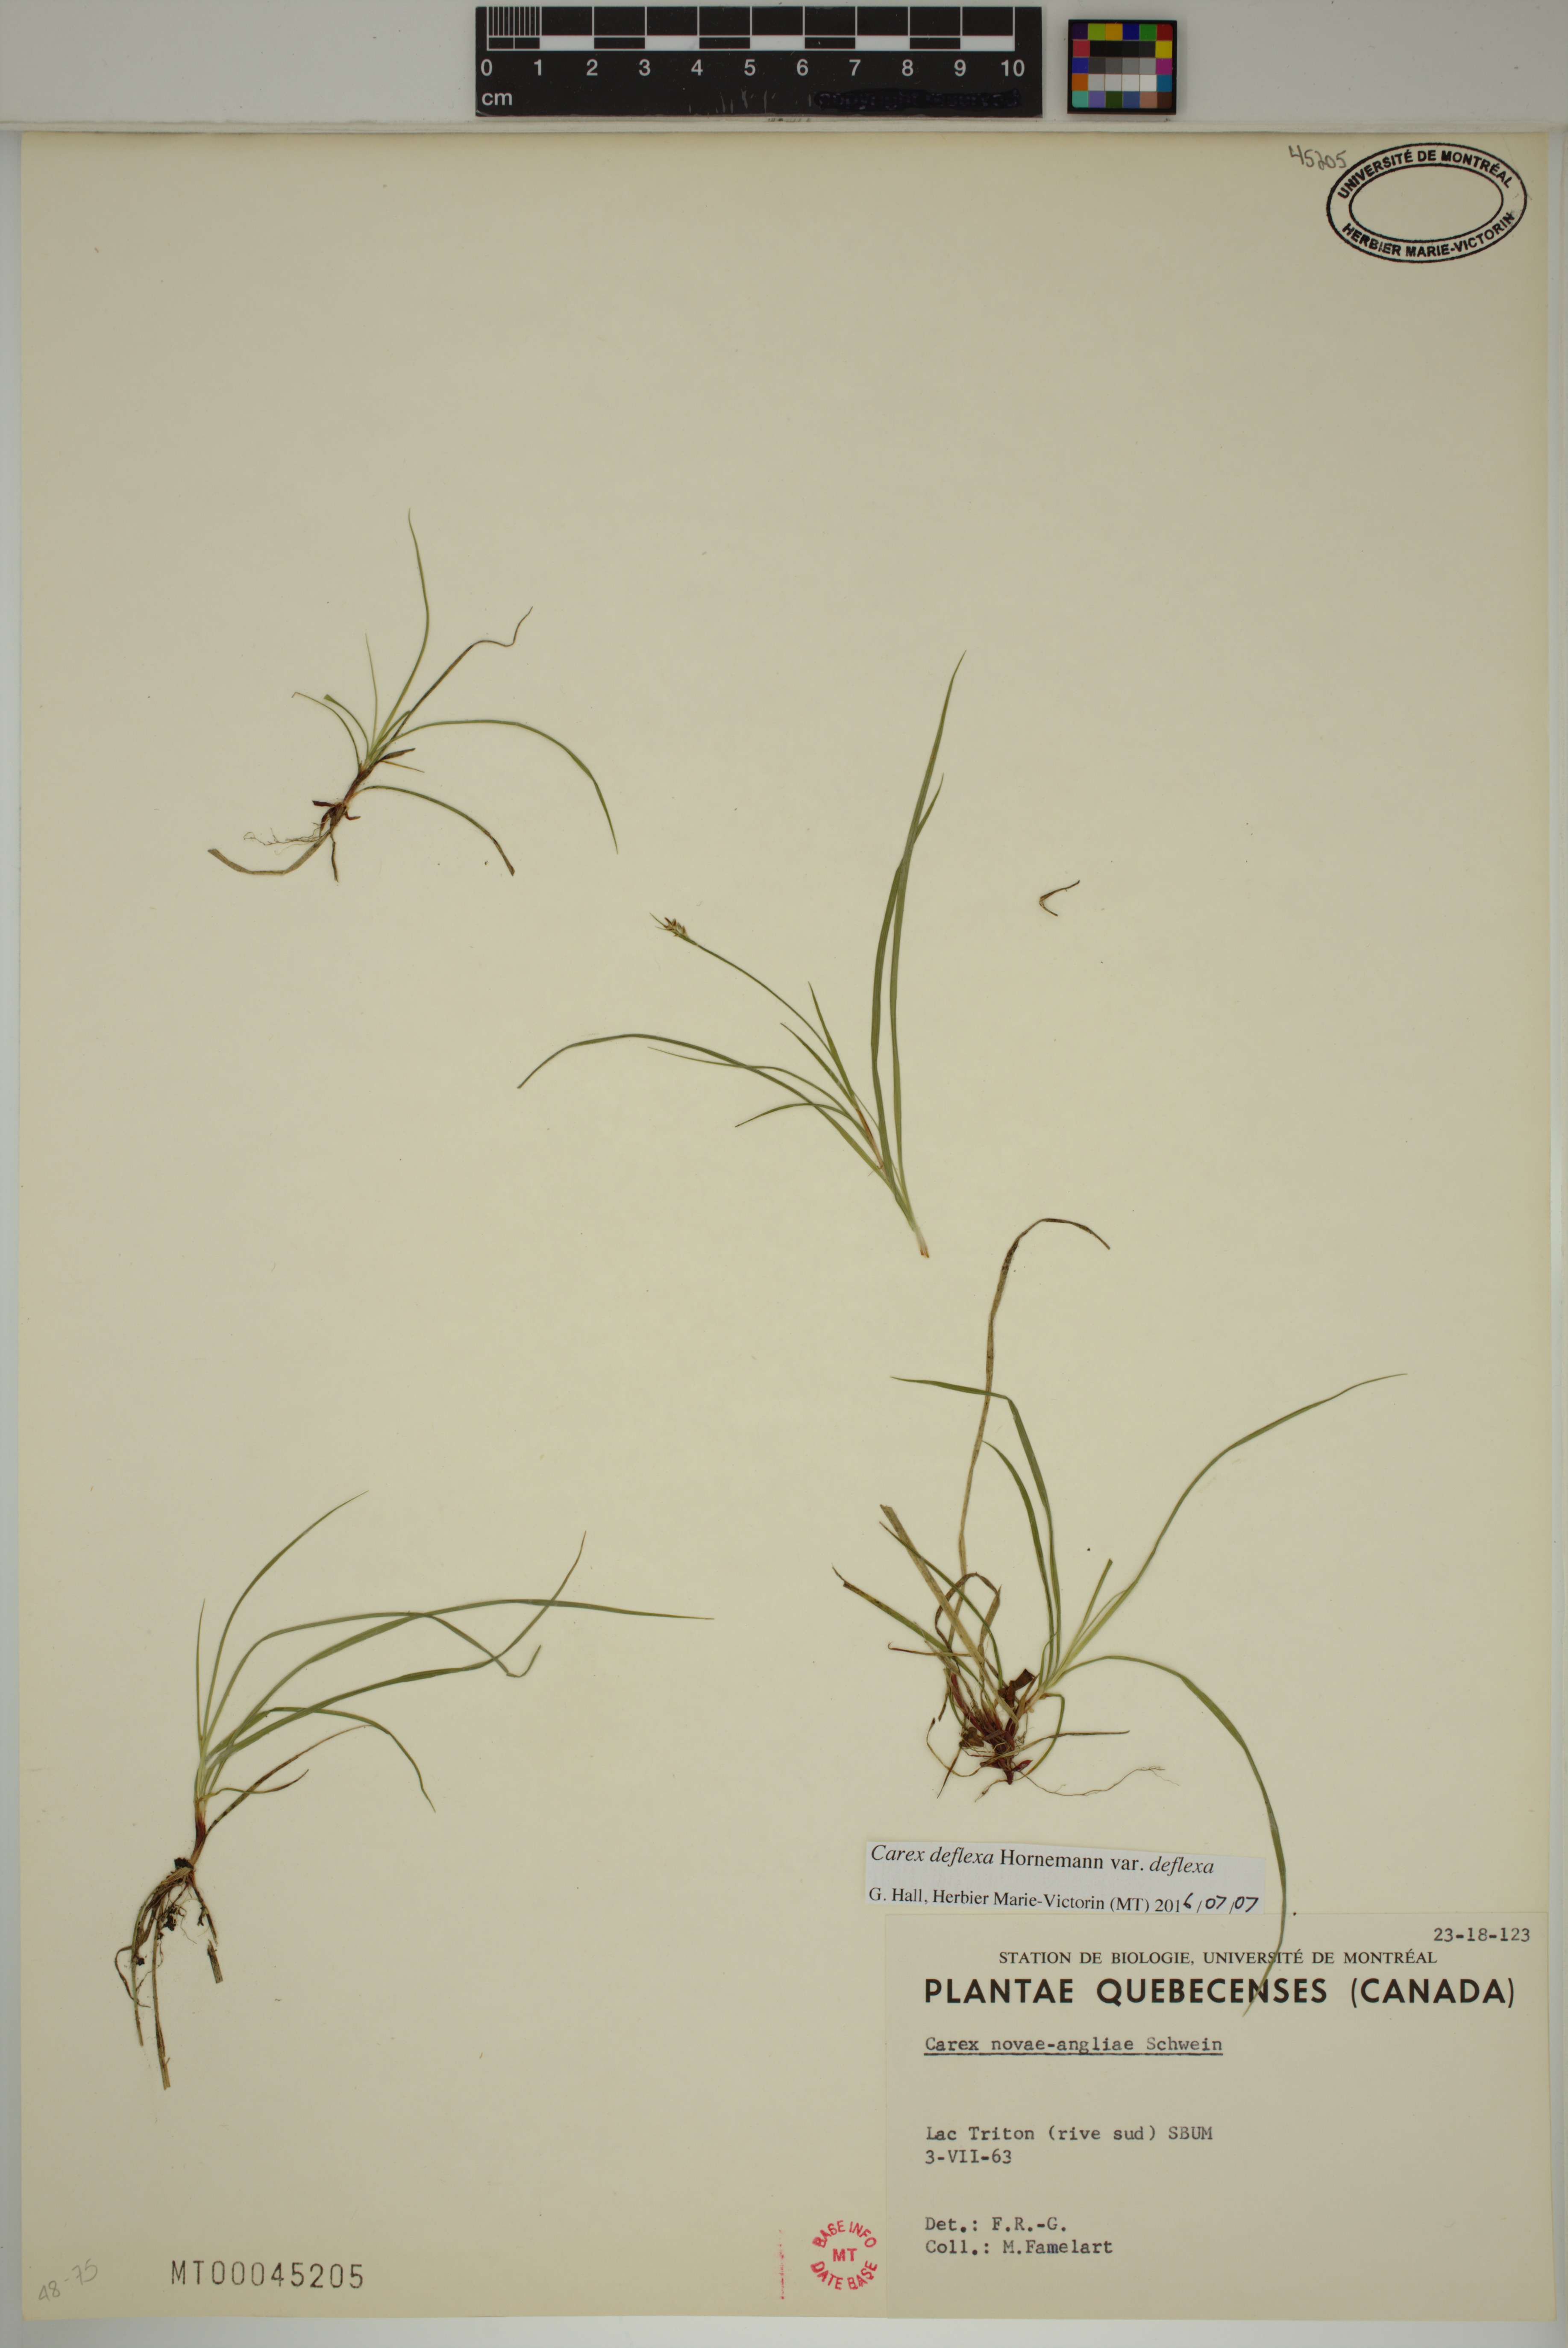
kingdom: Plantae
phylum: Tracheophyta
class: Liliopsida
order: Poales
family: Cyperaceae
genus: Carex
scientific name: Carex deflexa
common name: Bent northern sedge
